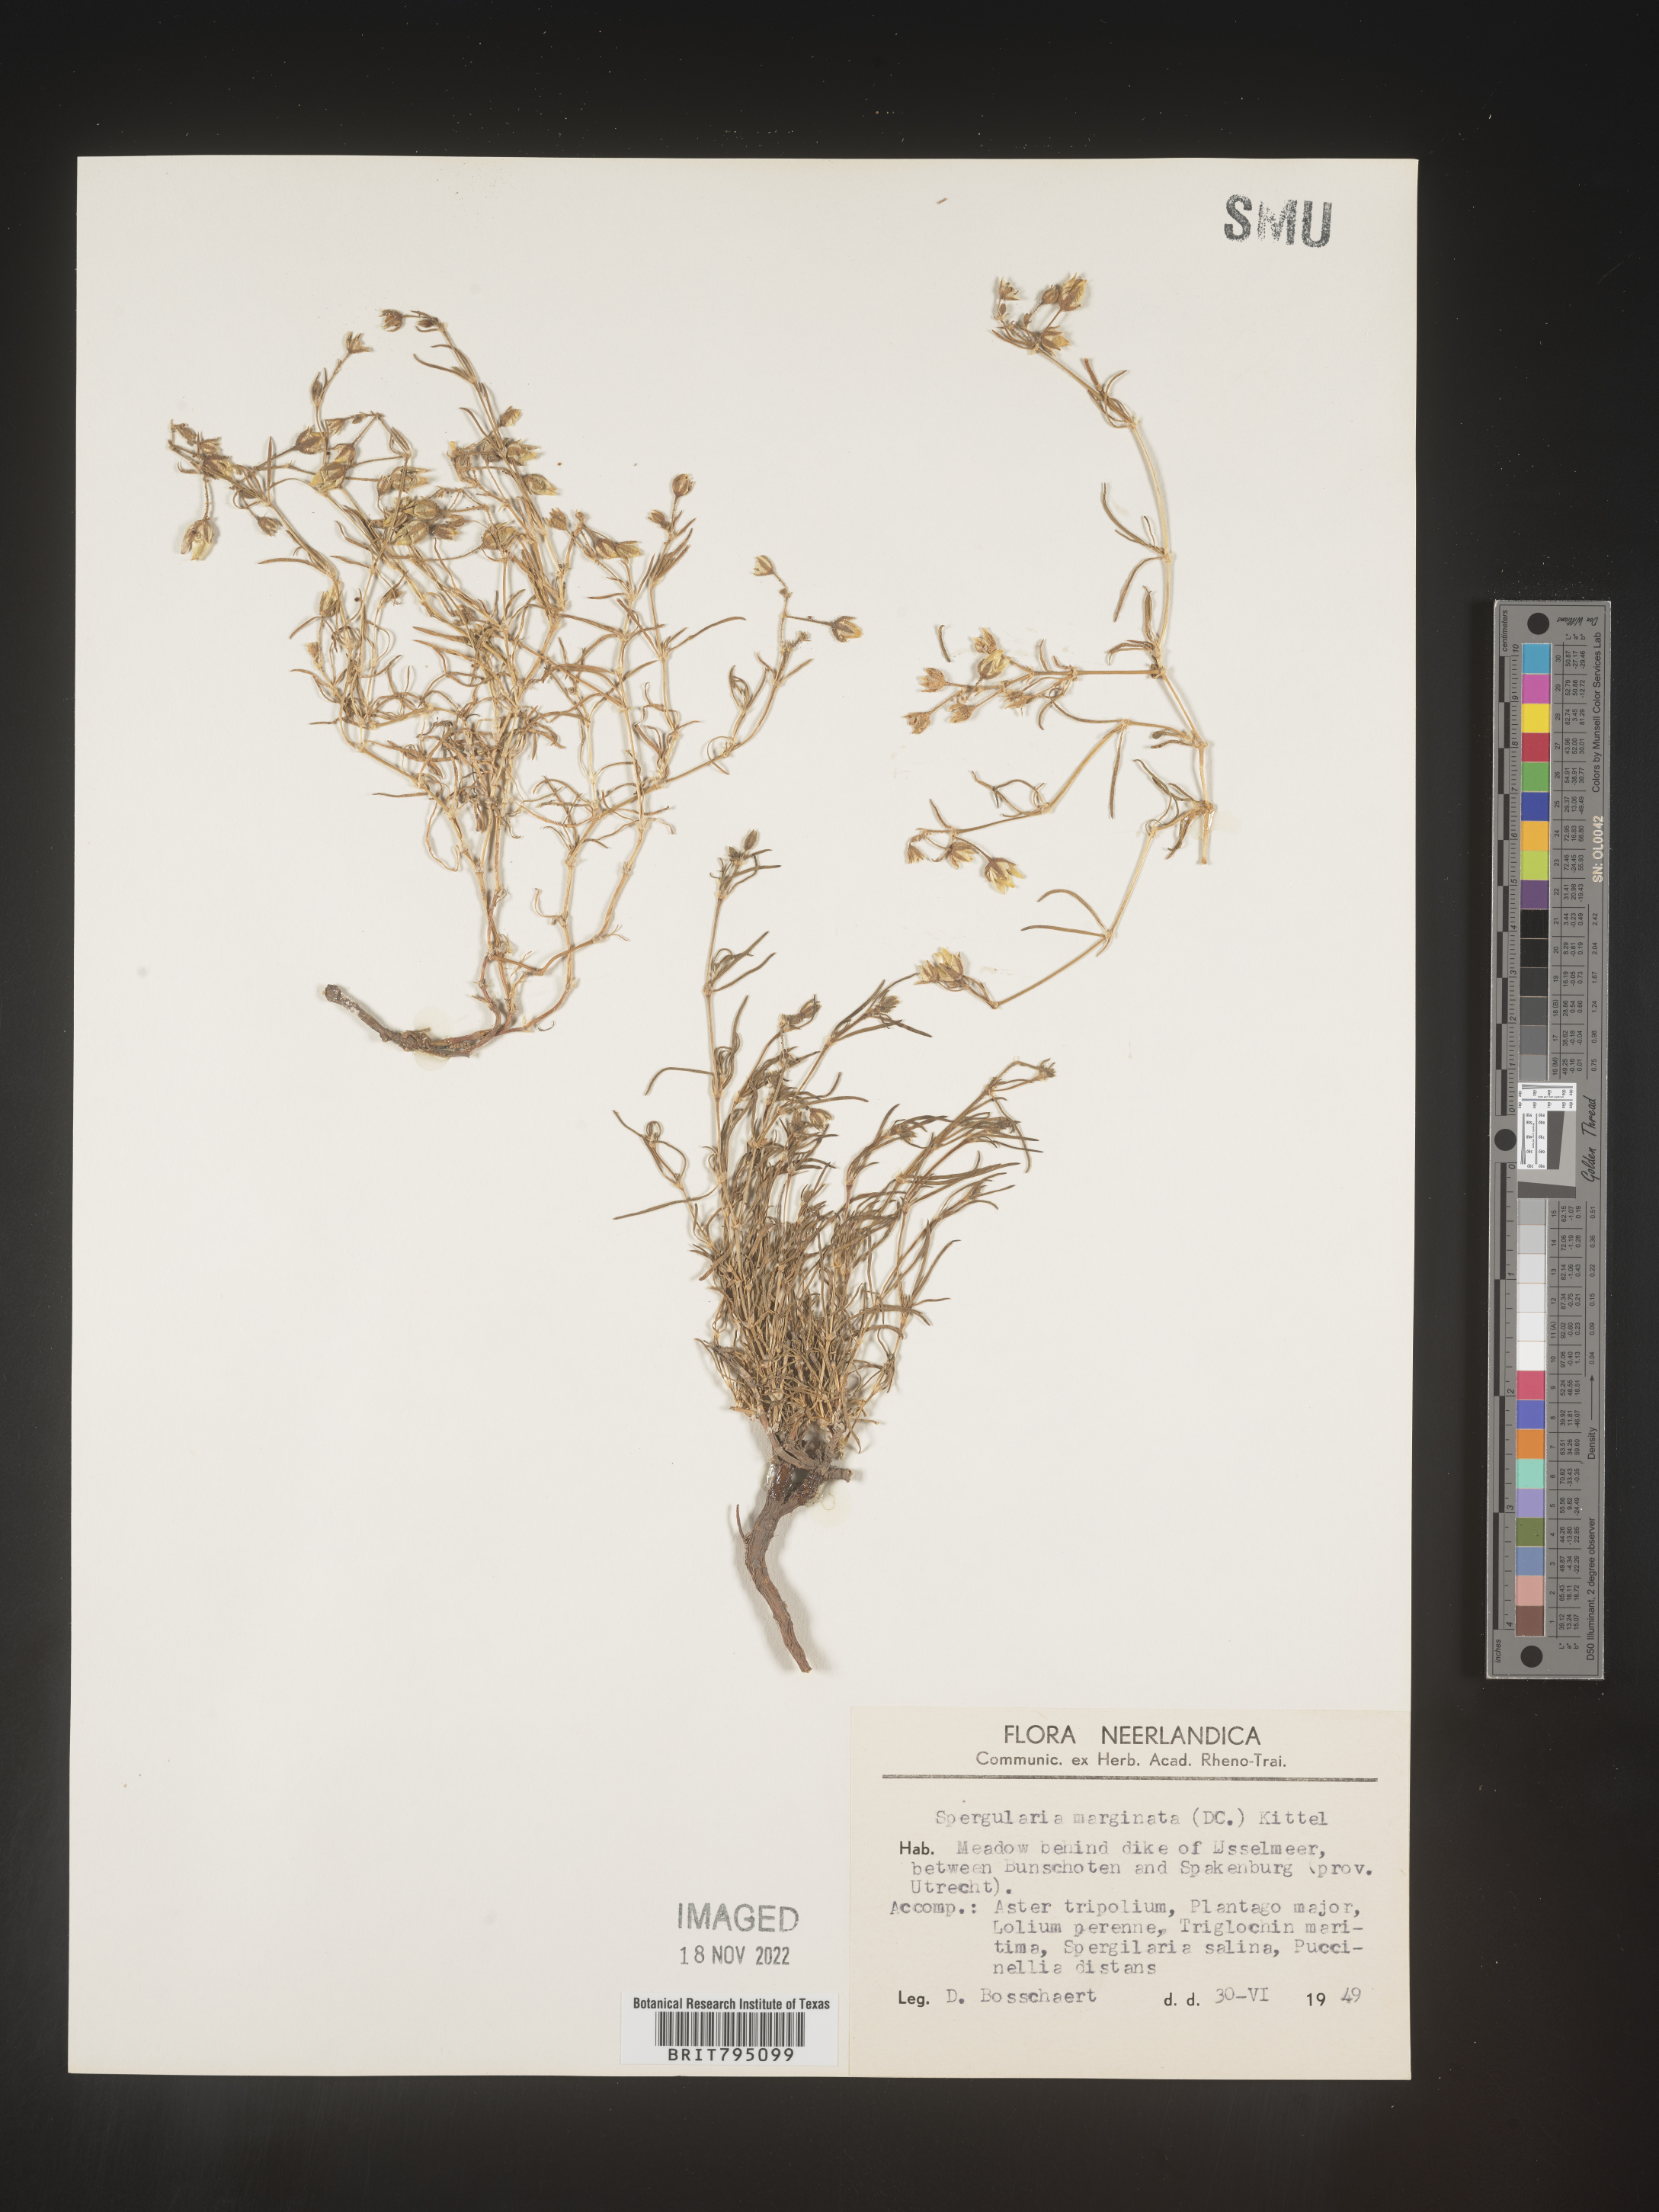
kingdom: Plantae
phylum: Tracheophyta
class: Magnoliopsida
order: Caryophyllales
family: Caryophyllaceae
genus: Spergularia
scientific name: Spergularia media
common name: Greater sea-spurrey
